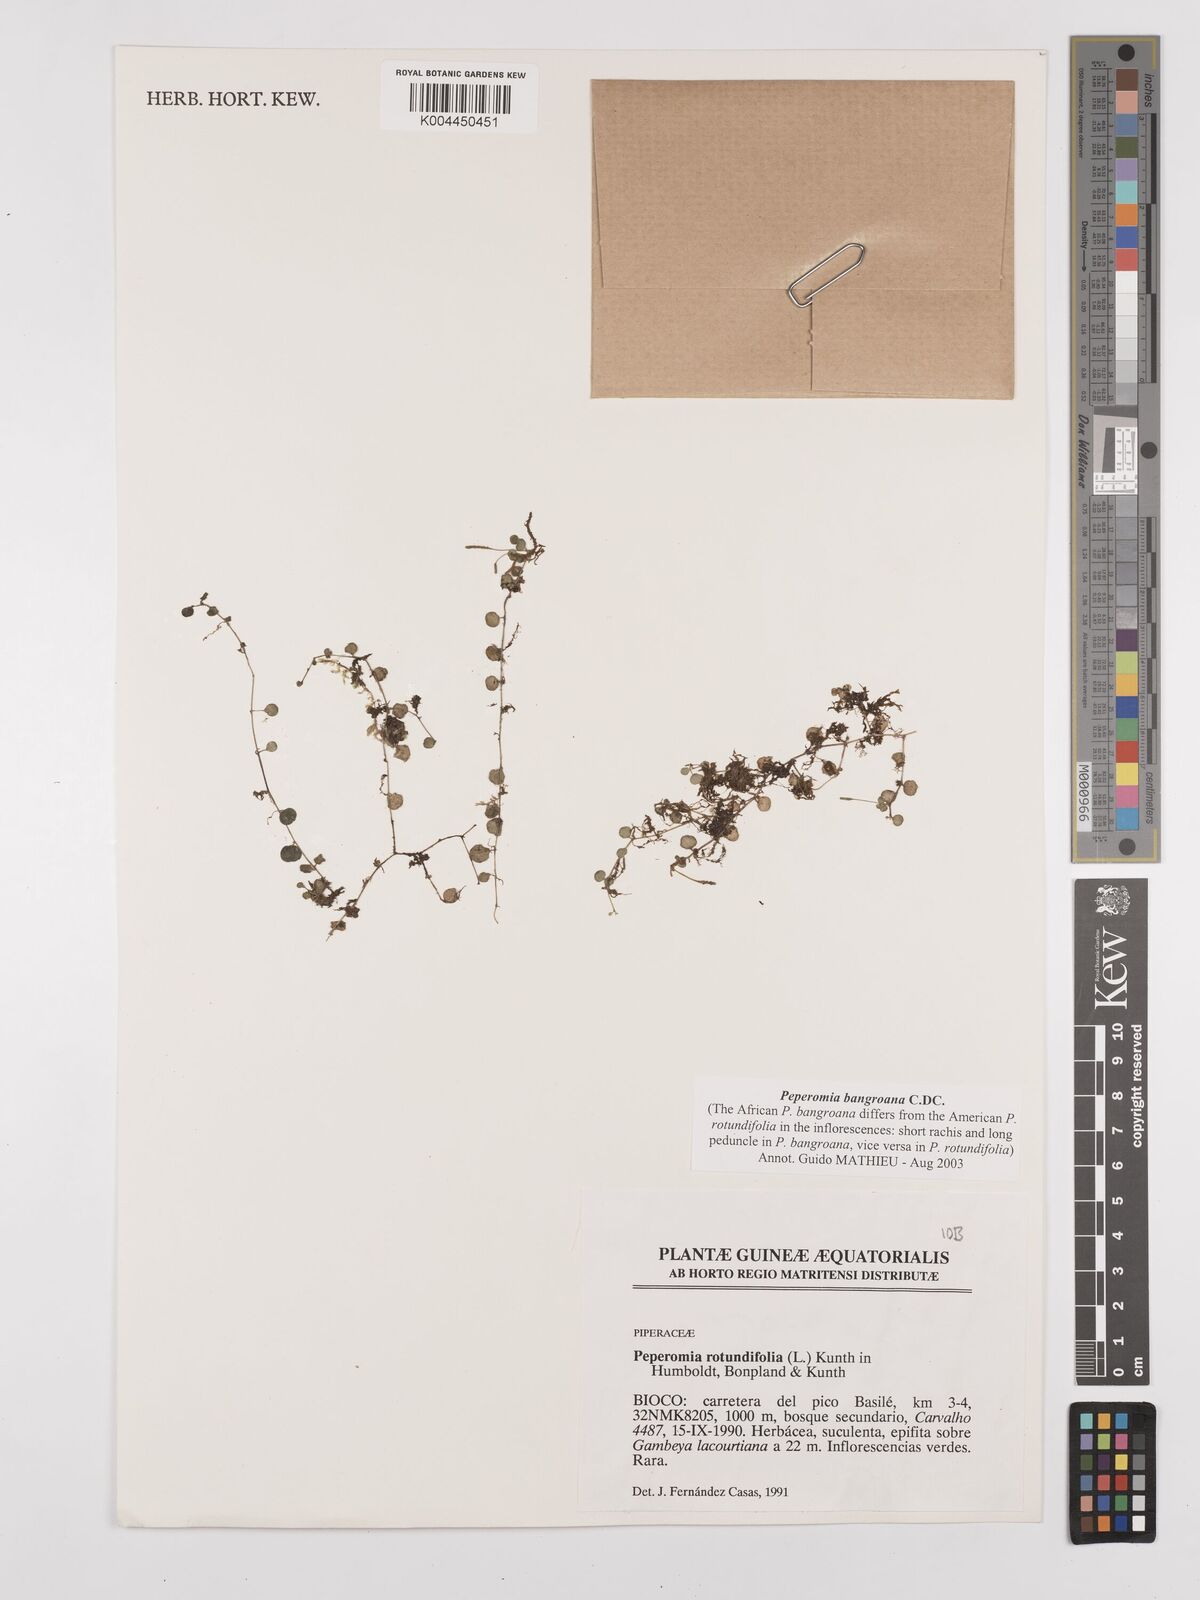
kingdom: Plantae
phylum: Tracheophyta
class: Magnoliopsida
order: Piperales
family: Piperaceae
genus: Peperomia
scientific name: Peperomia bangroana
